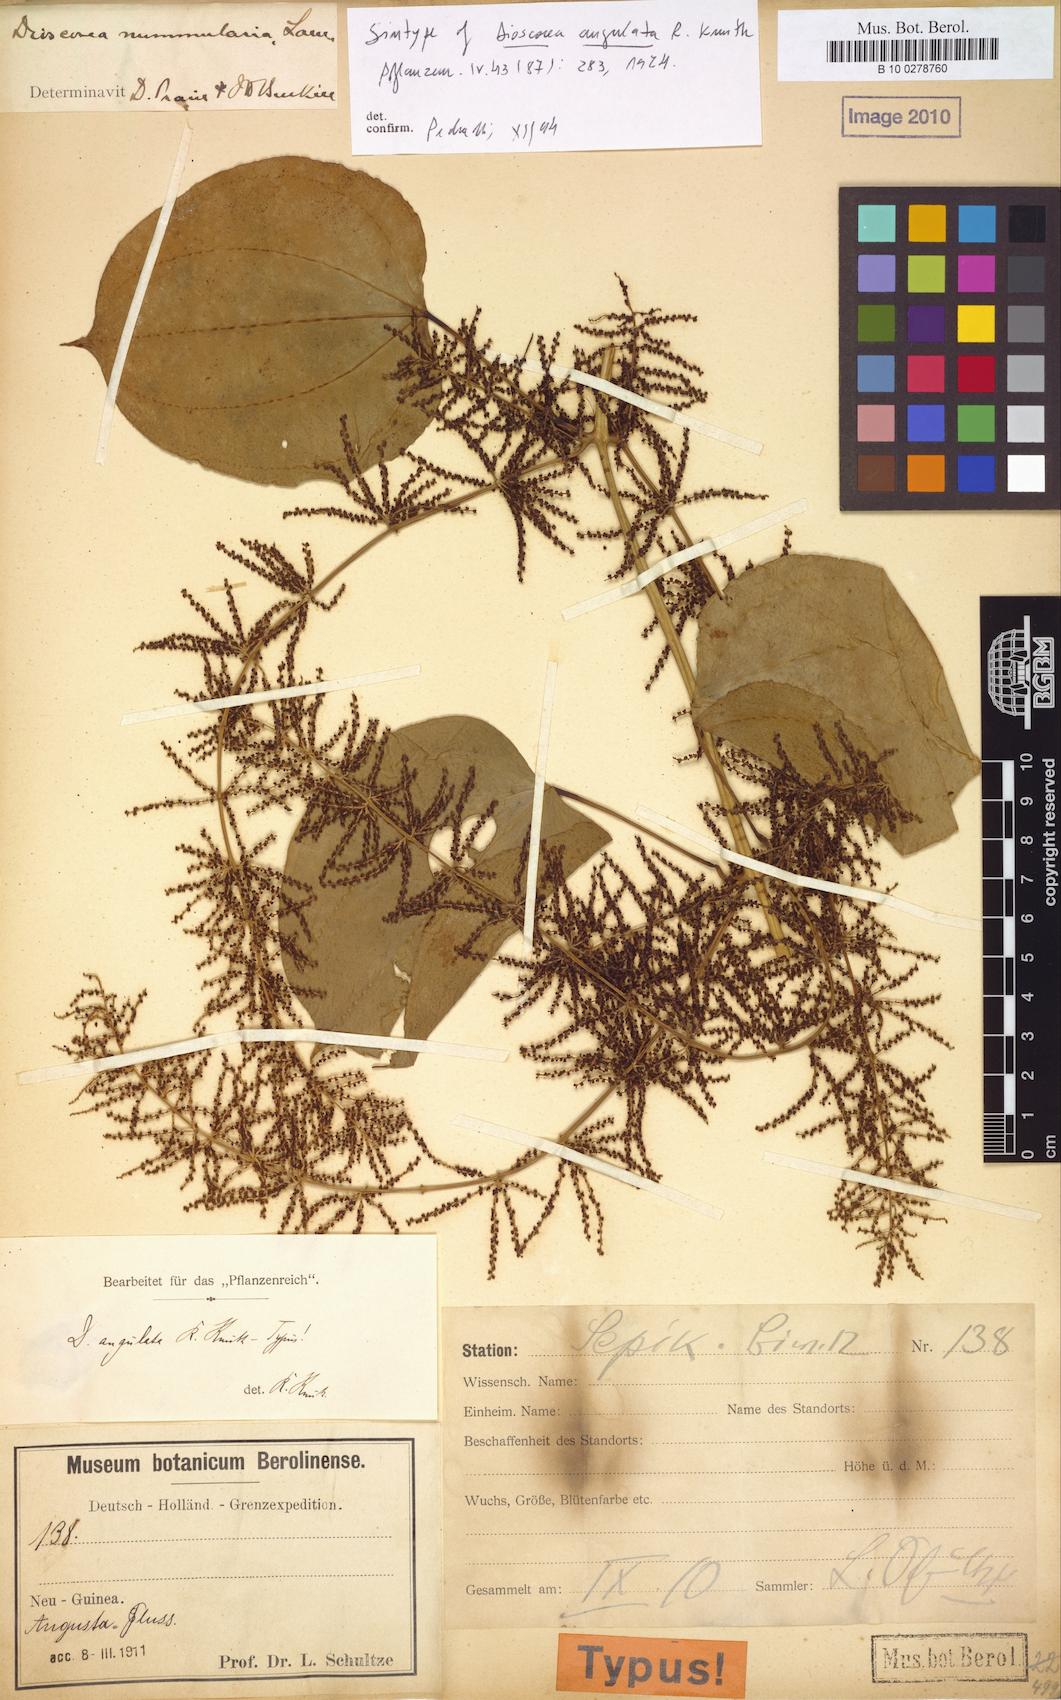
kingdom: Plantae
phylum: Tracheophyta
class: Liliopsida
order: Dioscoreales
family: Dioscoreaceae
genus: Dioscorea
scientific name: Dioscorea nummularia
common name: Pacific yam
